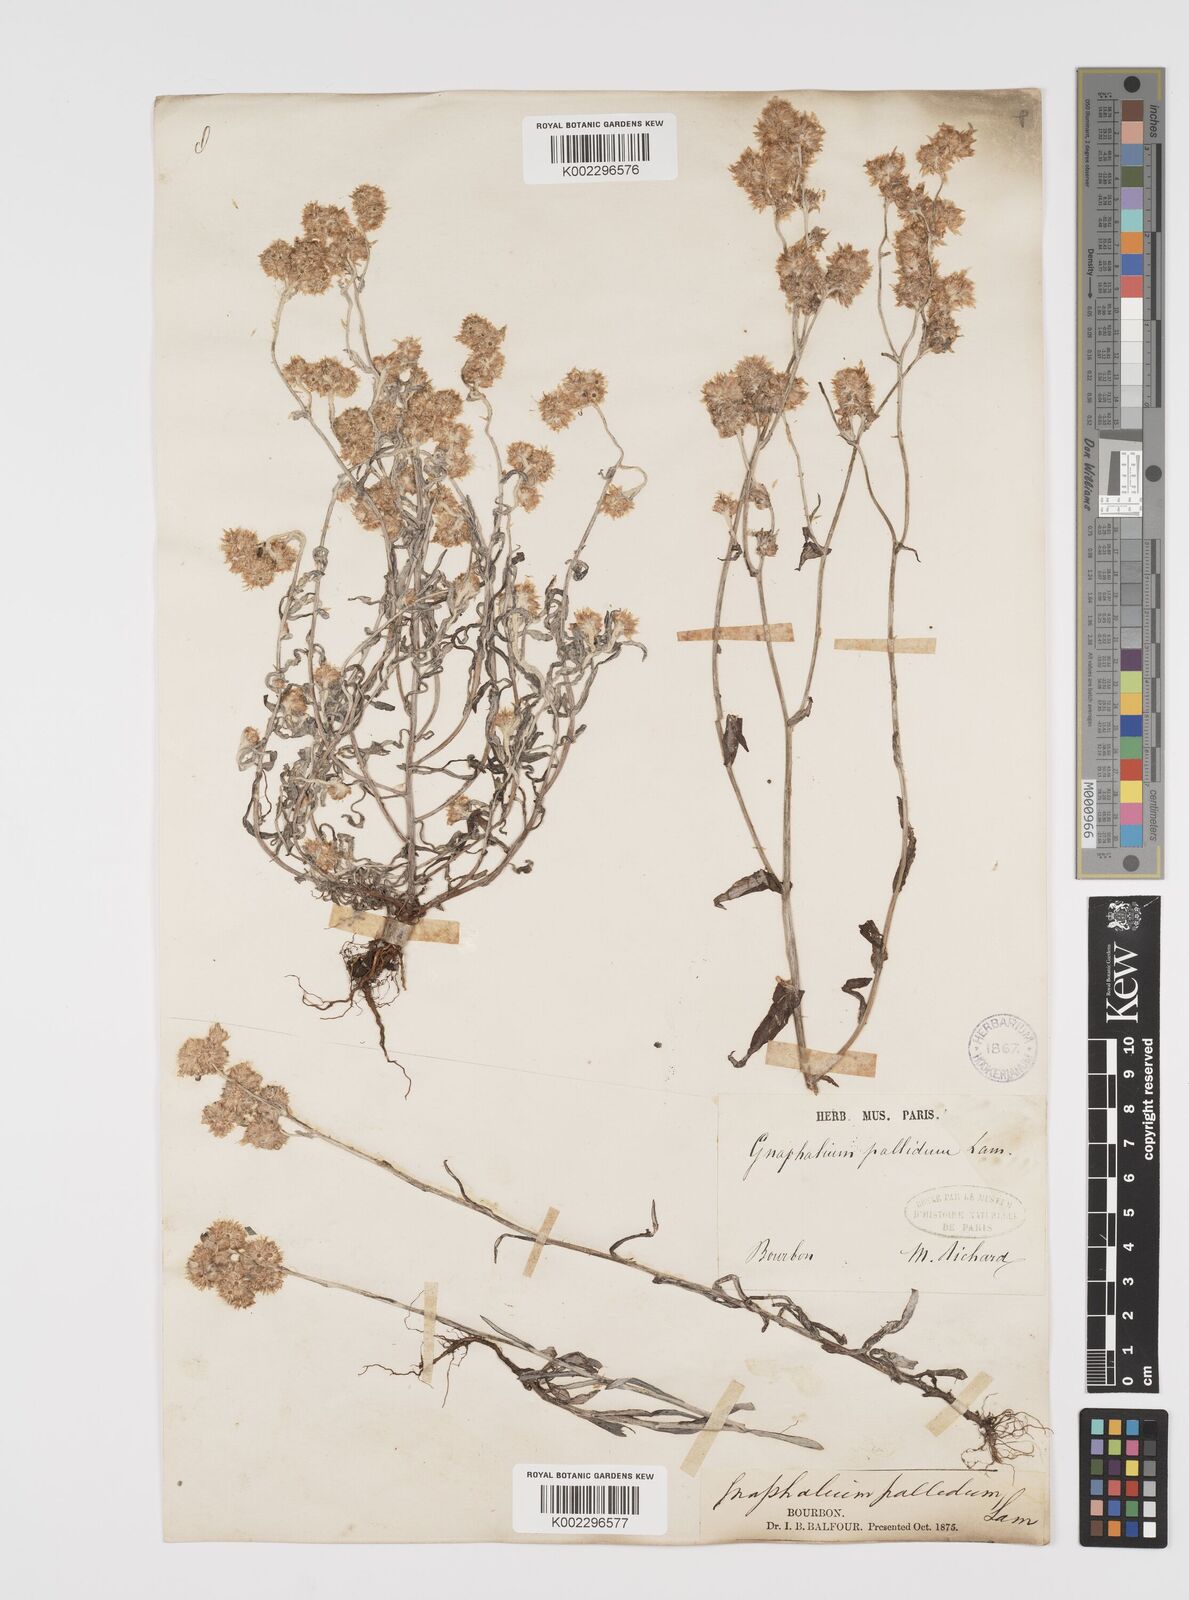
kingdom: Plantae
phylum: Tracheophyta
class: Magnoliopsida
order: Asterales
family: Asteraceae
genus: Helichrysum
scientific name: Helichrysum luteoalbum
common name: Daisy
